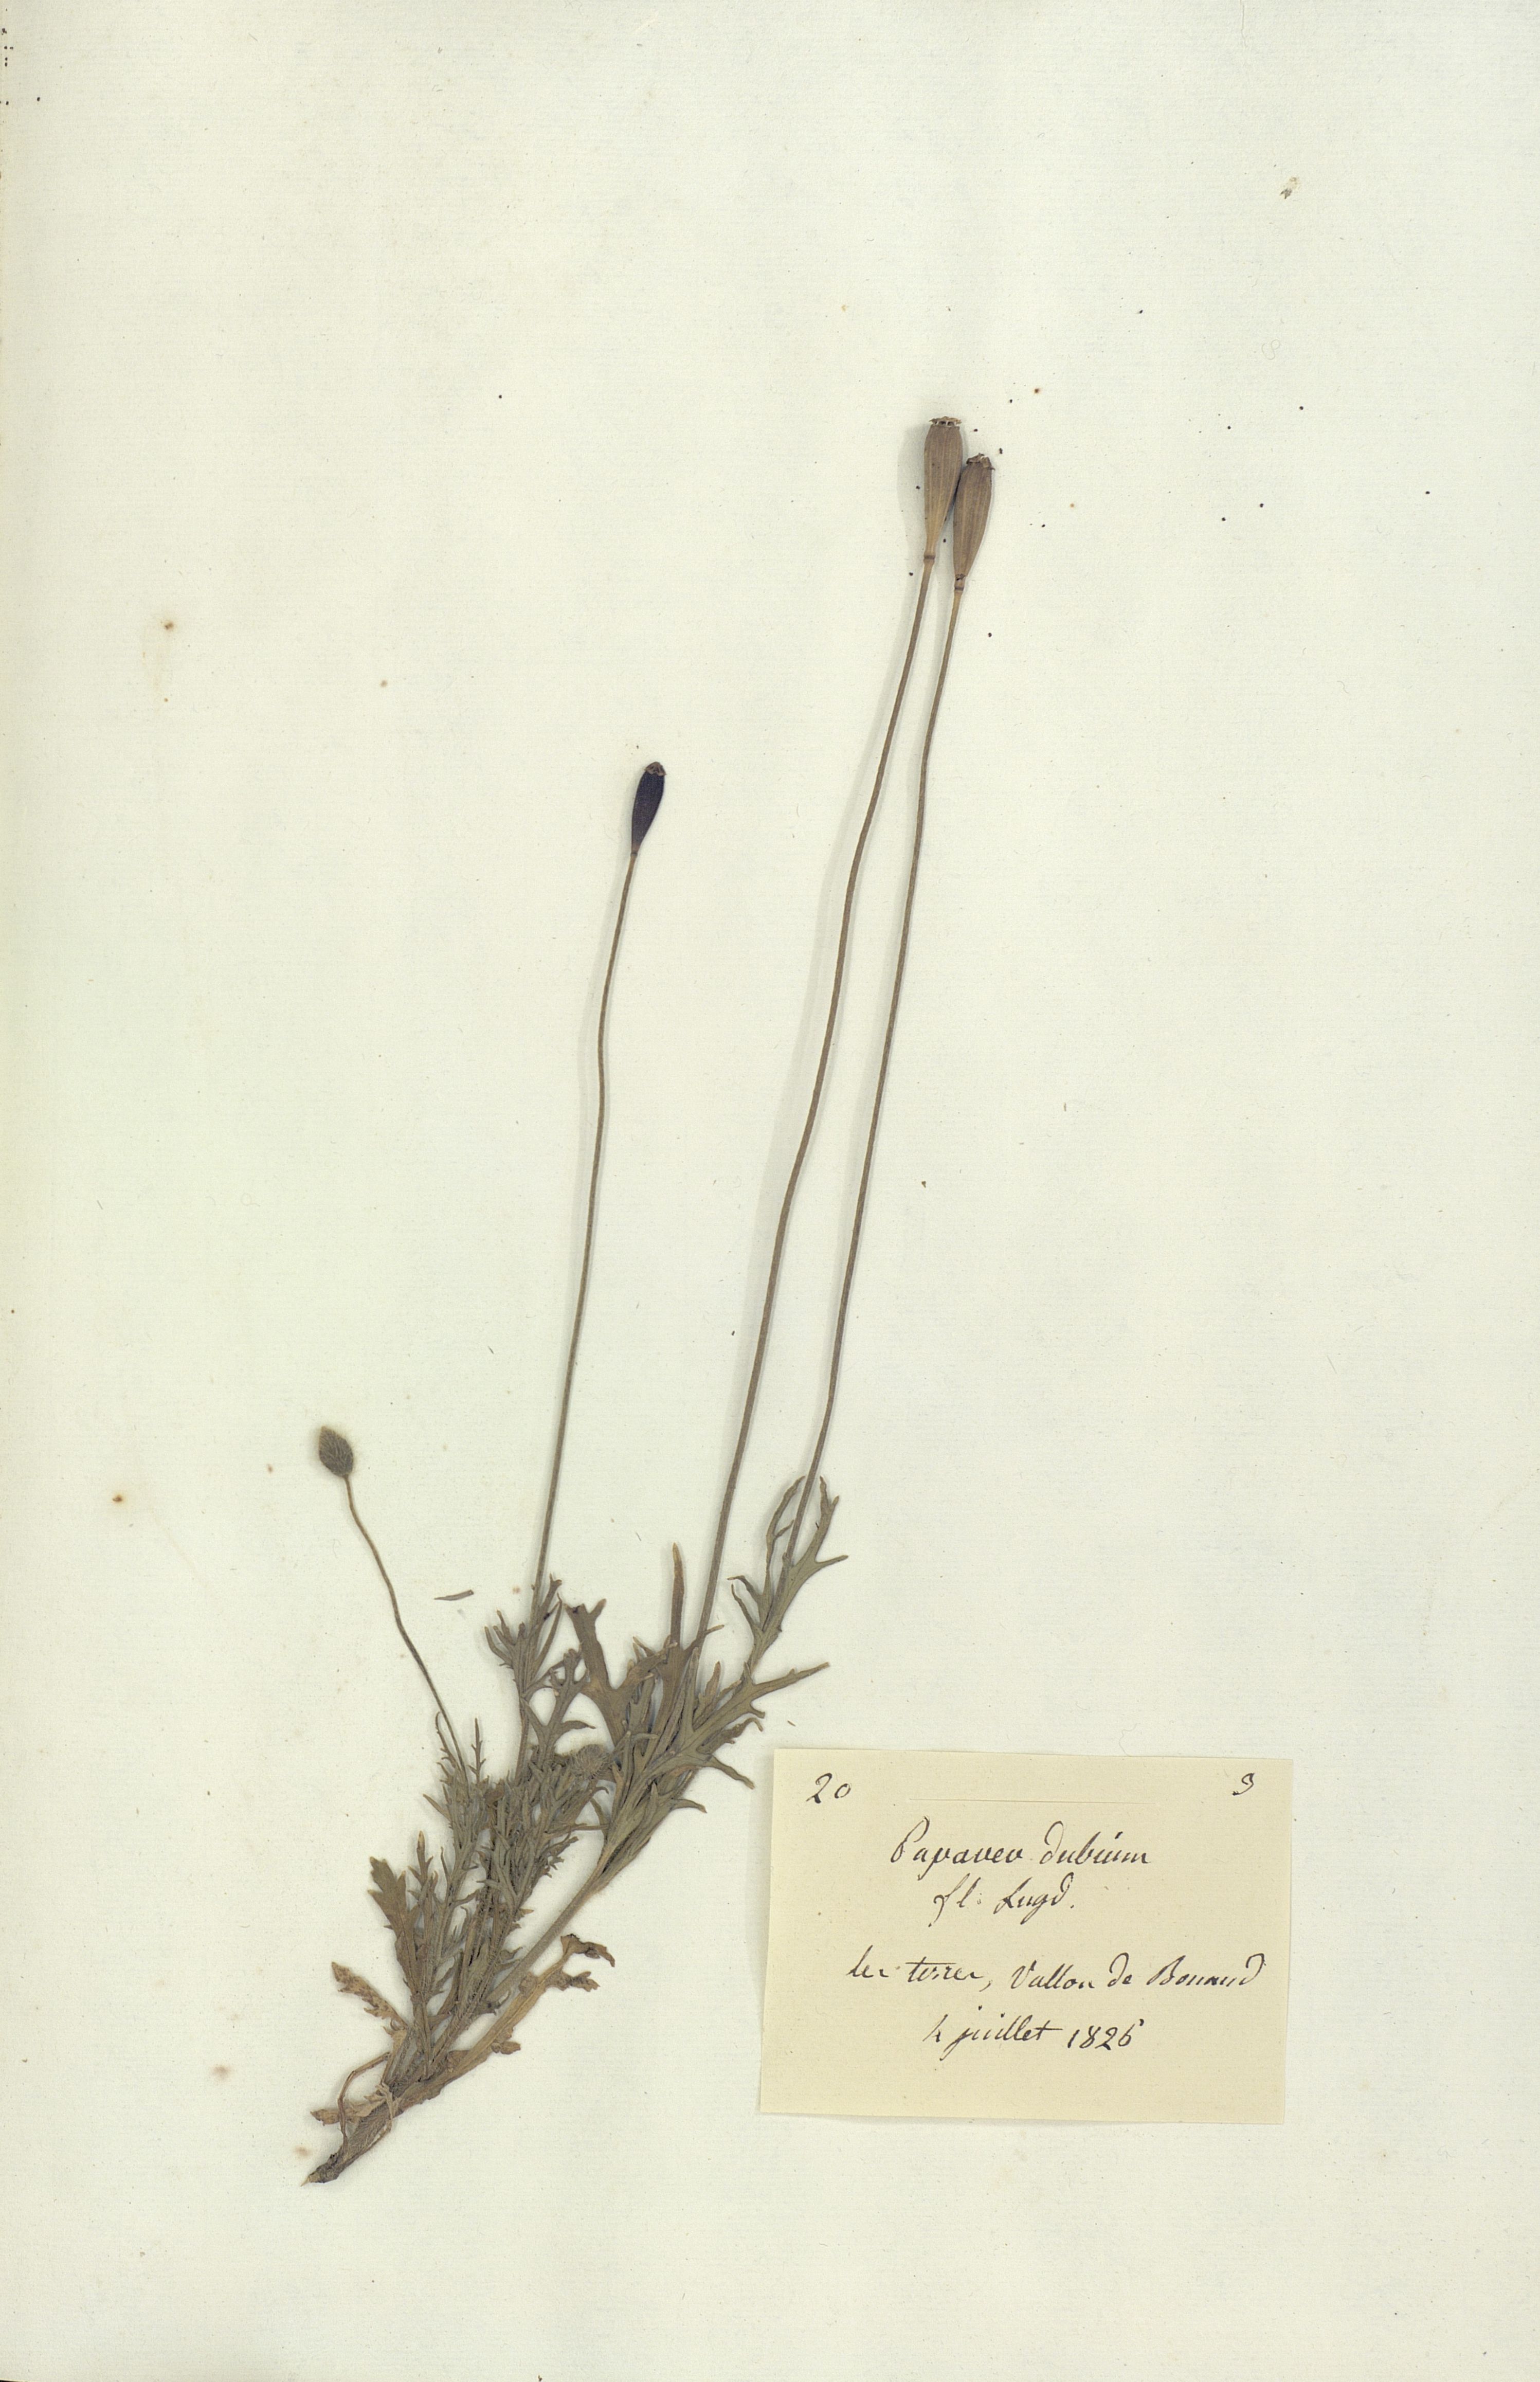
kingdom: Plantae
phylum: Tracheophyta
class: Magnoliopsida
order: Ranunculales
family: Papaveraceae
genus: Papaver
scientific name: Papaver dubium
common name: Long-headed poppy
